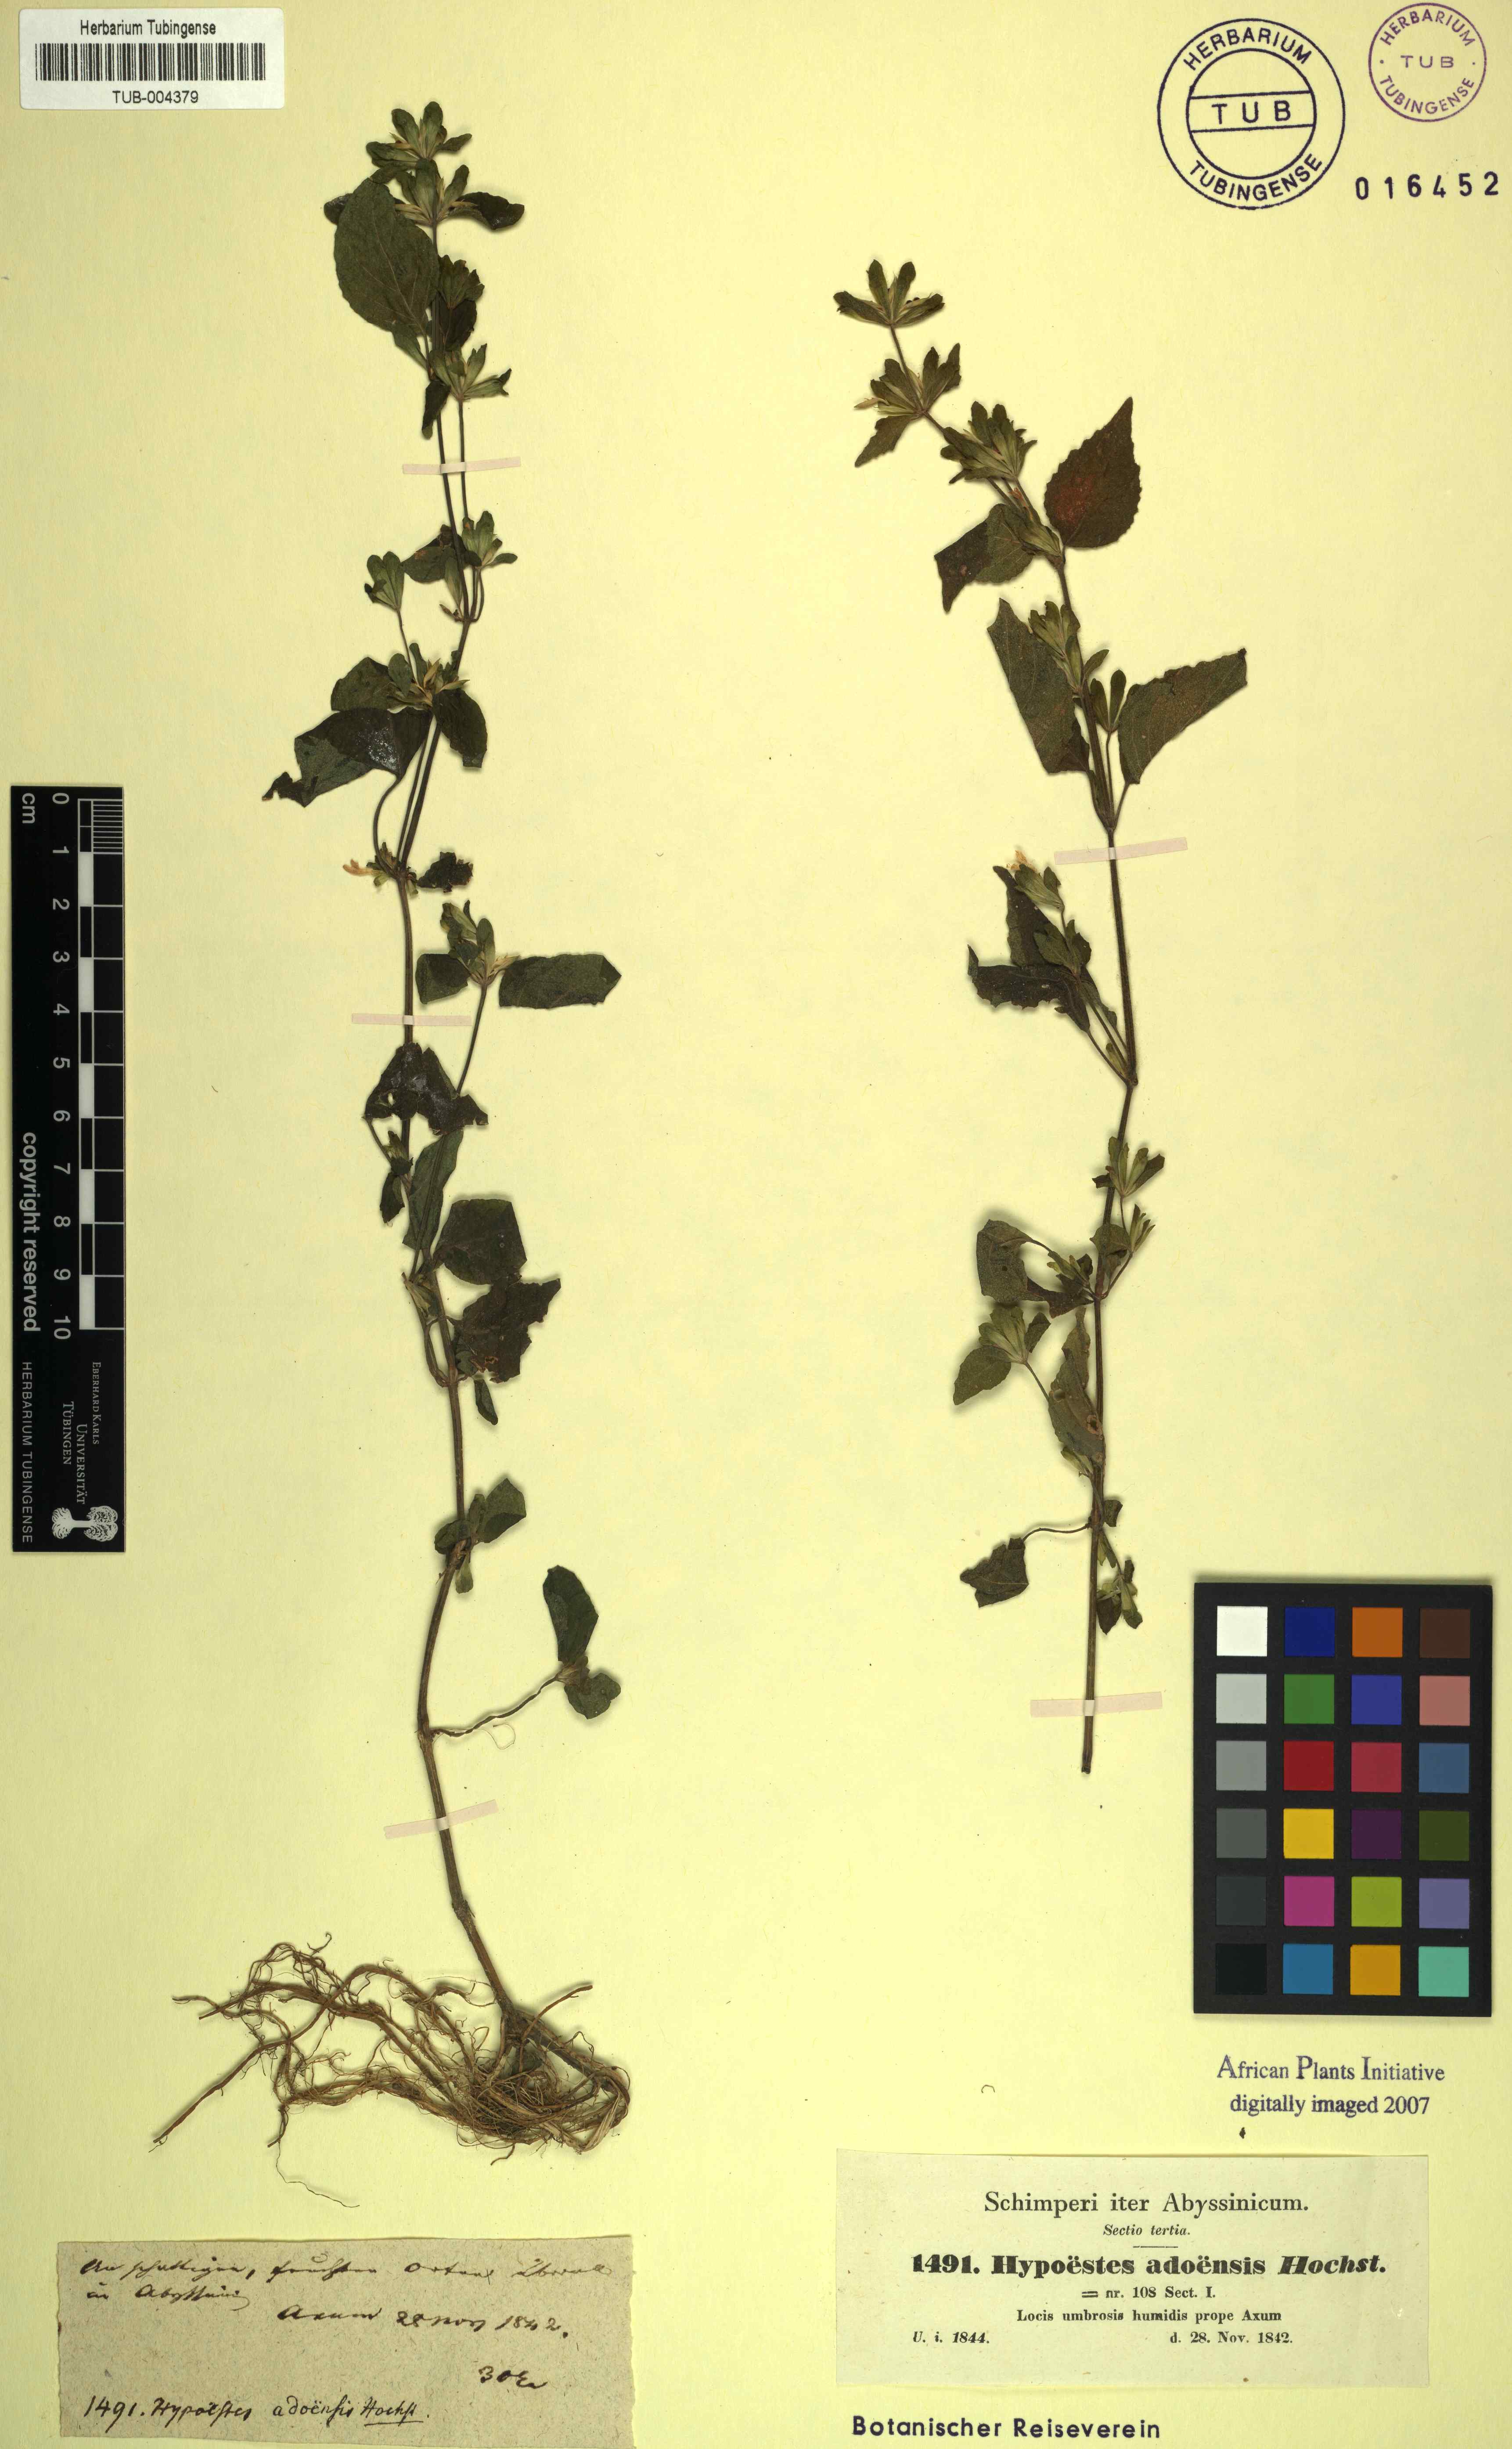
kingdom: Plantae
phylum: Tracheophyta
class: Magnoliopsida
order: Lamiales
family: Acanthaceae
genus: Hypoestes
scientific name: Hypoestes triflora
